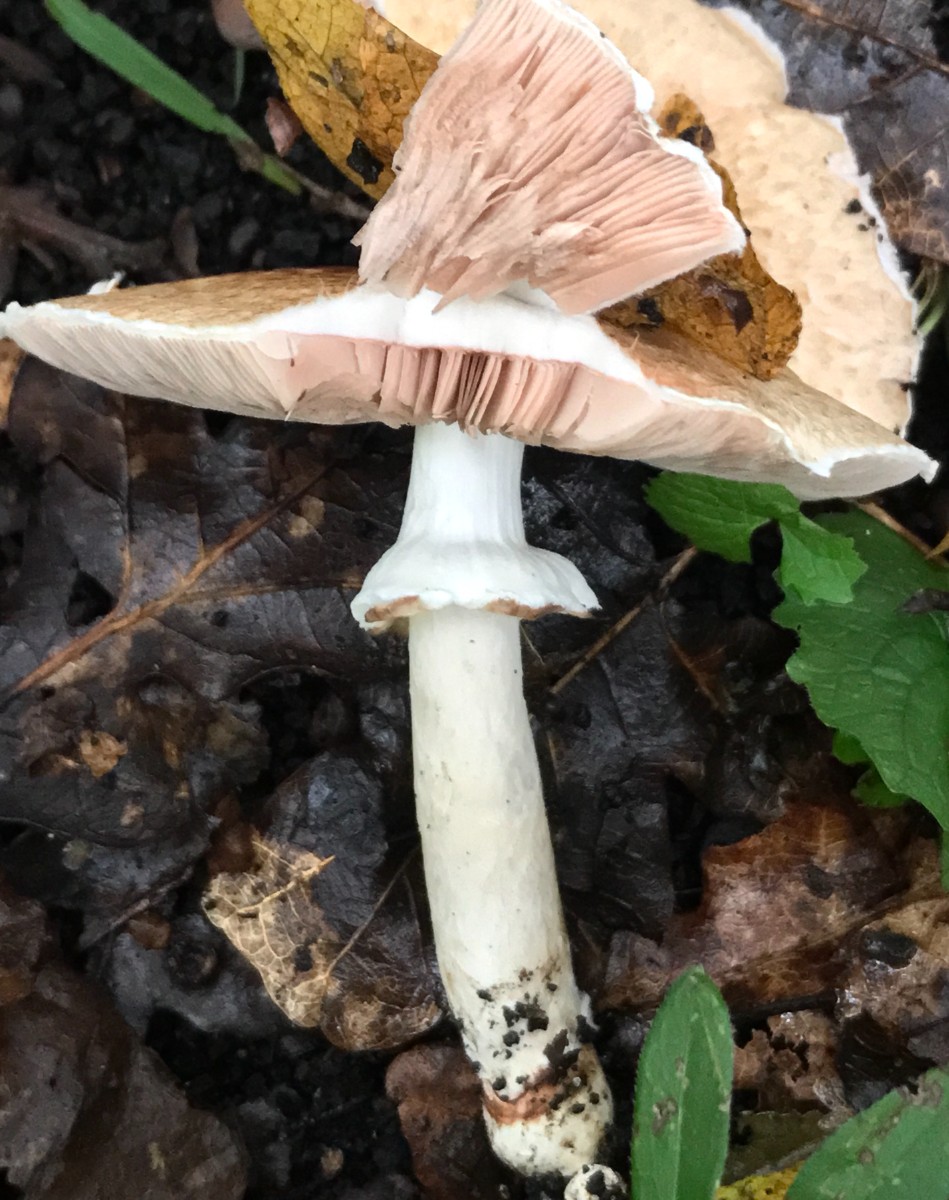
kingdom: Fungi
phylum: Basidiomycota
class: Agaricomycetes
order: Agaricales
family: Agaricaceae
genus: Agaricus
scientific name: Agaricus impudicus
